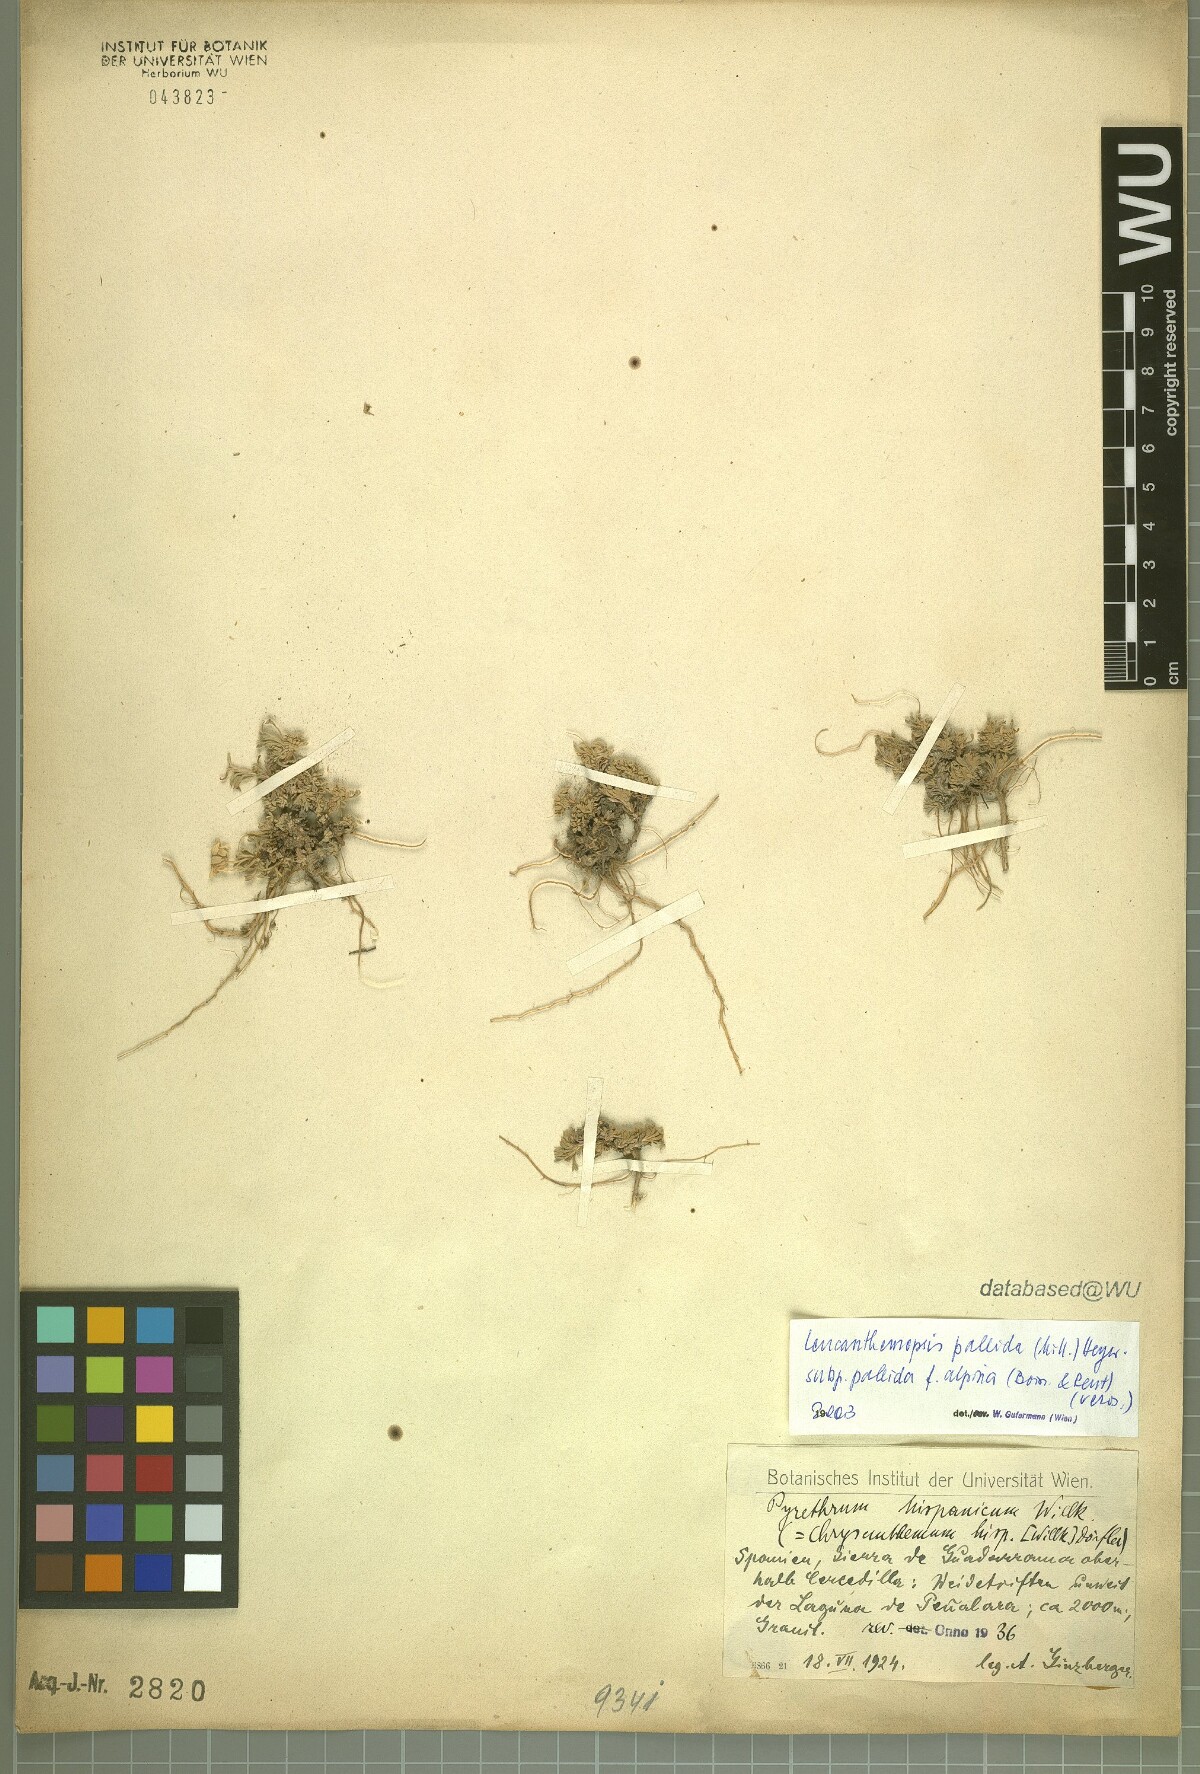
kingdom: Plantae
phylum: Tracheophyta
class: Magnoliopsida
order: Asterales
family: Asteraceae
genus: Leucanthemopsis
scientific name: Leucanthemopsis pallida
